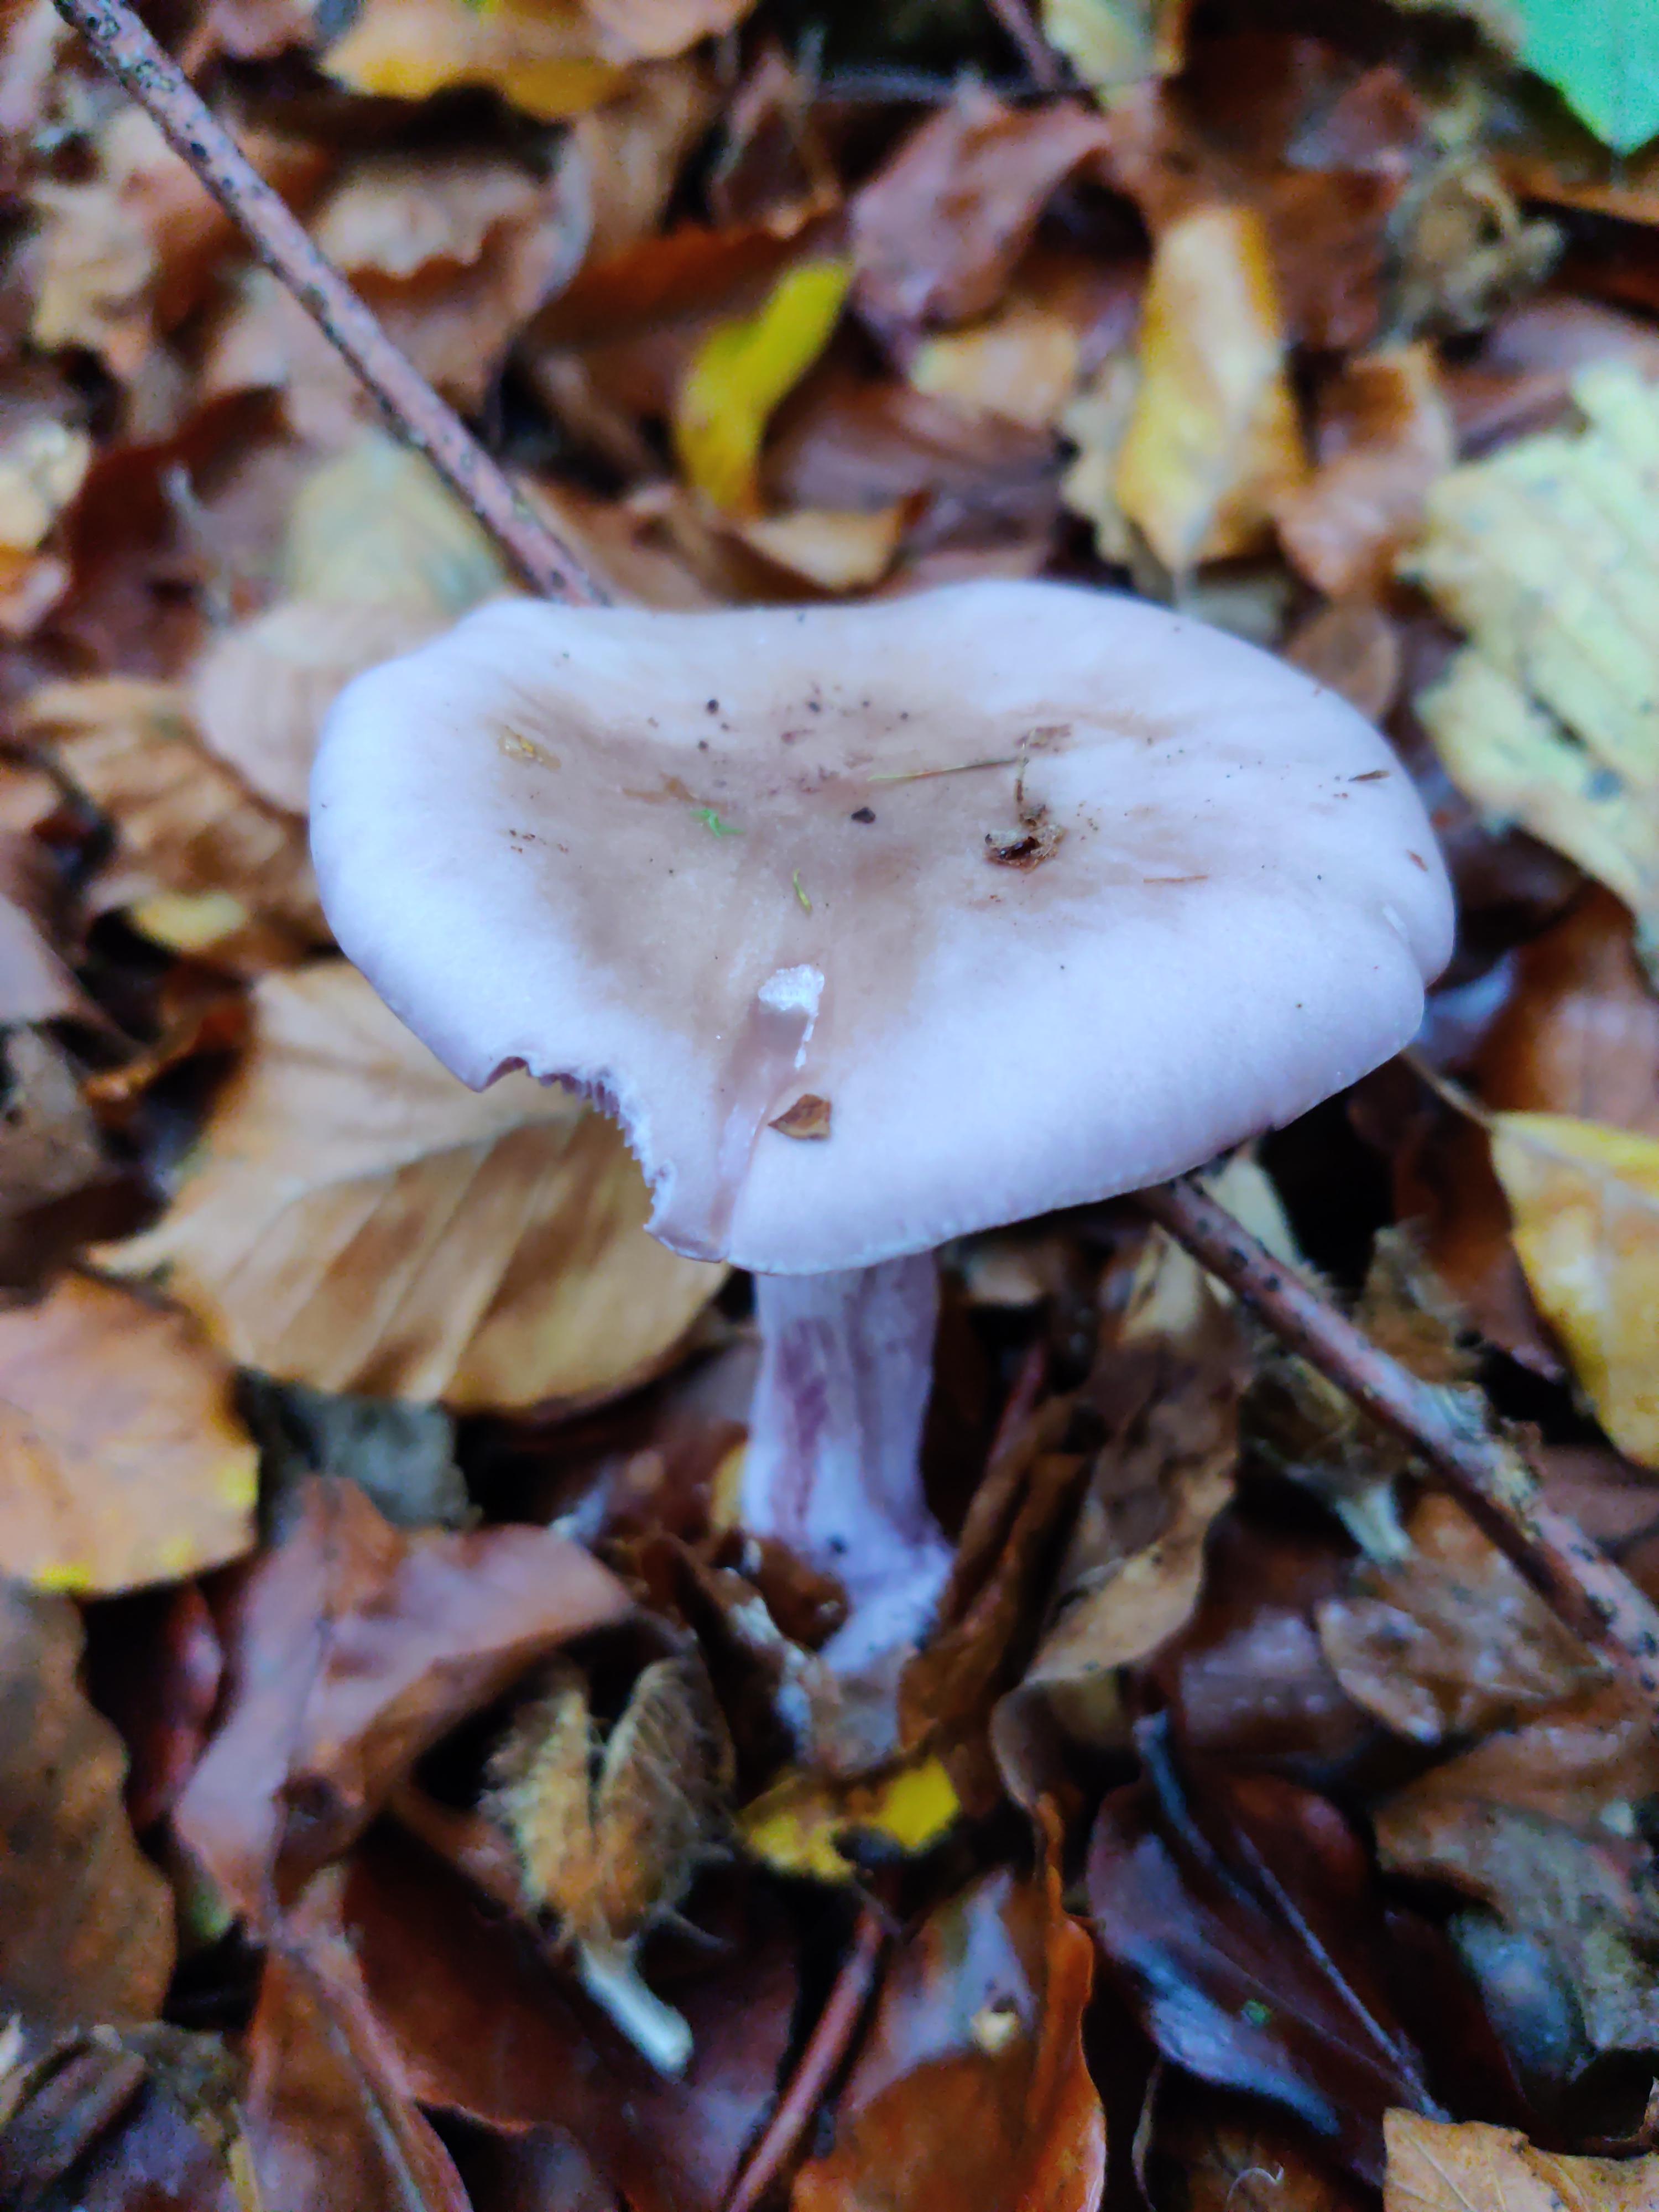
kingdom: Fungi
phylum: Basidiomycota
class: Agaricomycetes
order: Agaricales
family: Tricholomataceae
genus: Lepista
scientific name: Lepista nuda
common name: violet hekseringshat
